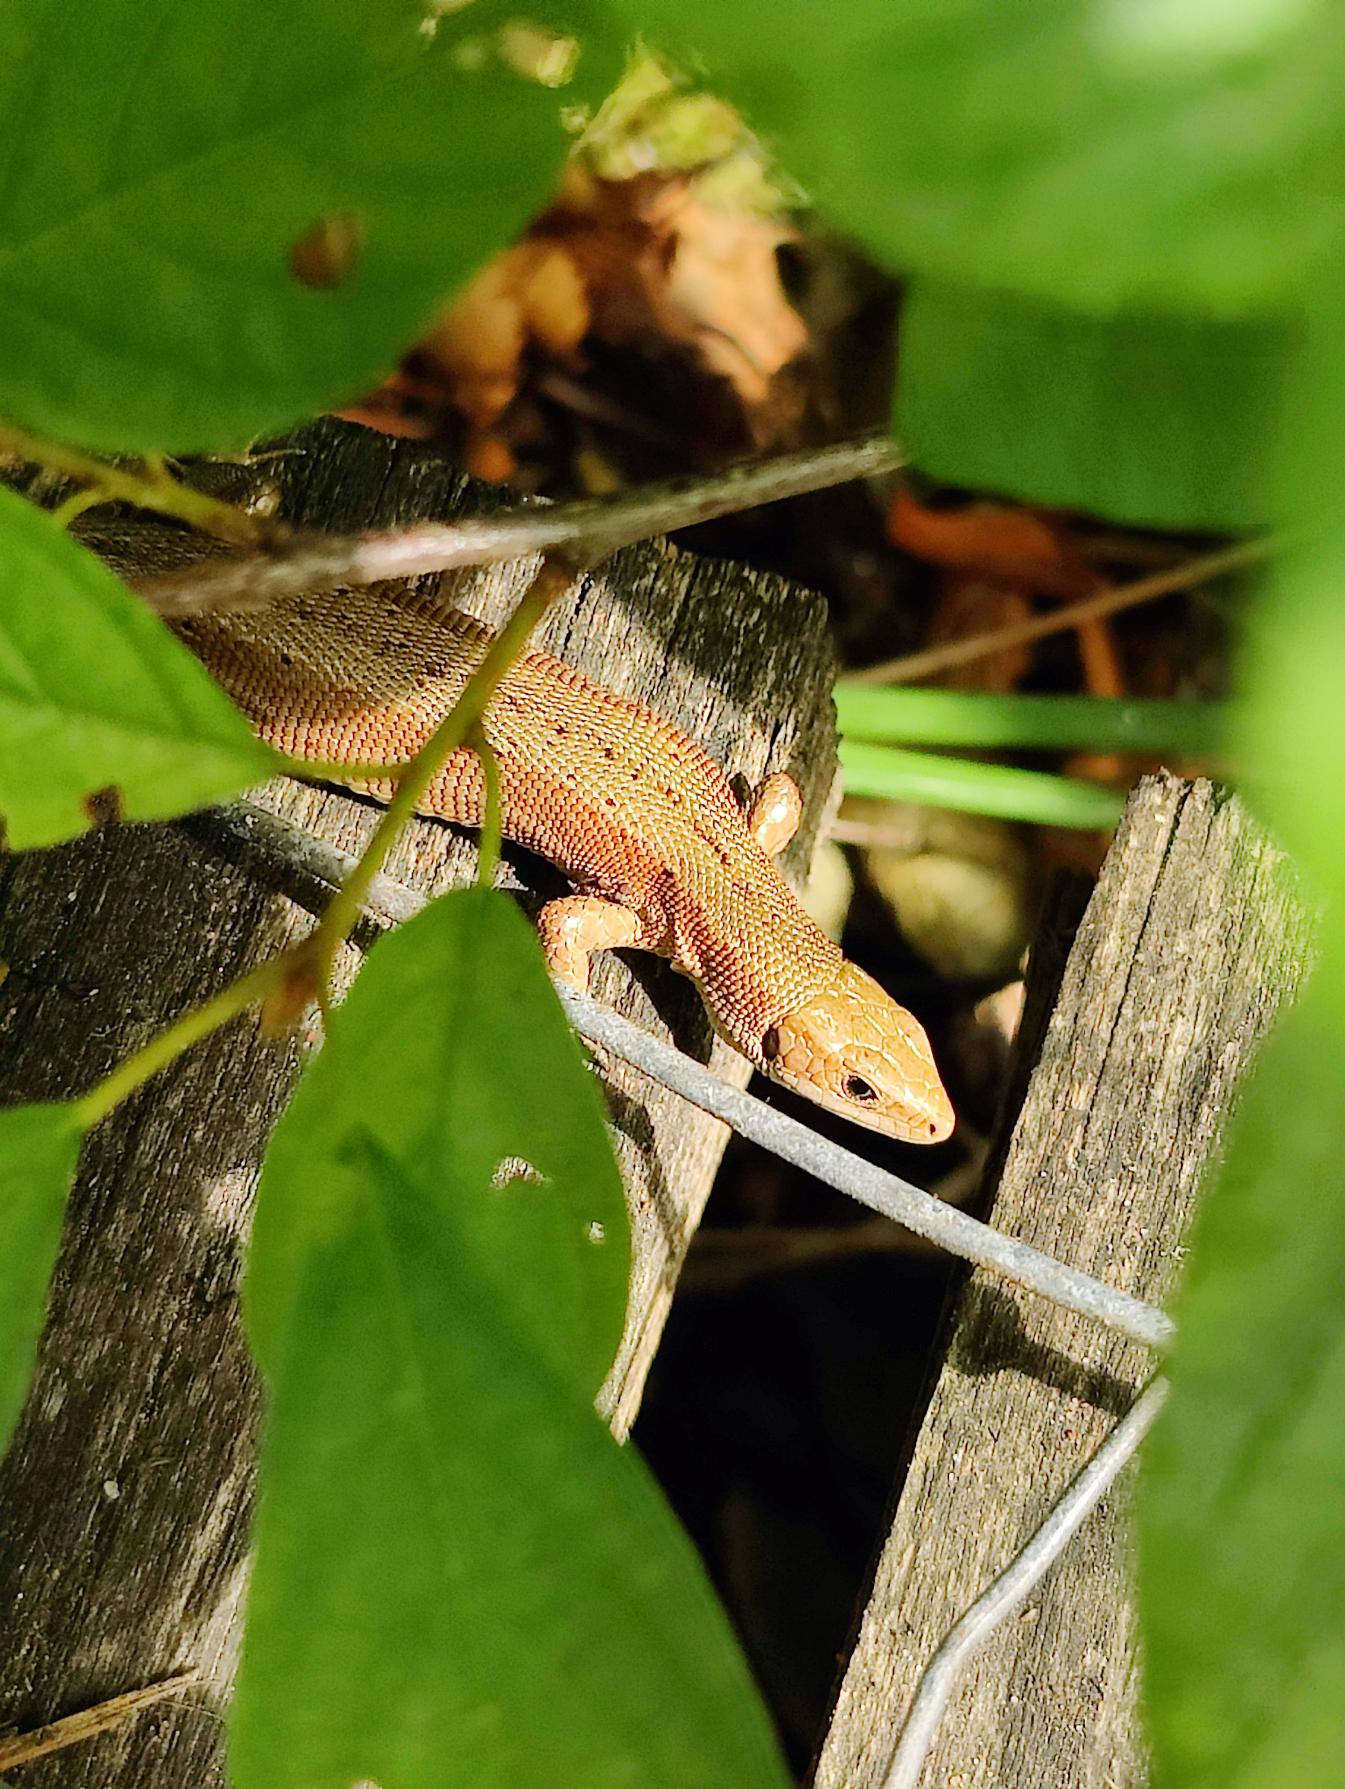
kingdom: Animalia
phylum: Chordata
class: Squamata
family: Lacertidae
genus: Zootoca
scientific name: Zootoca vivipara
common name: Skovfirben
